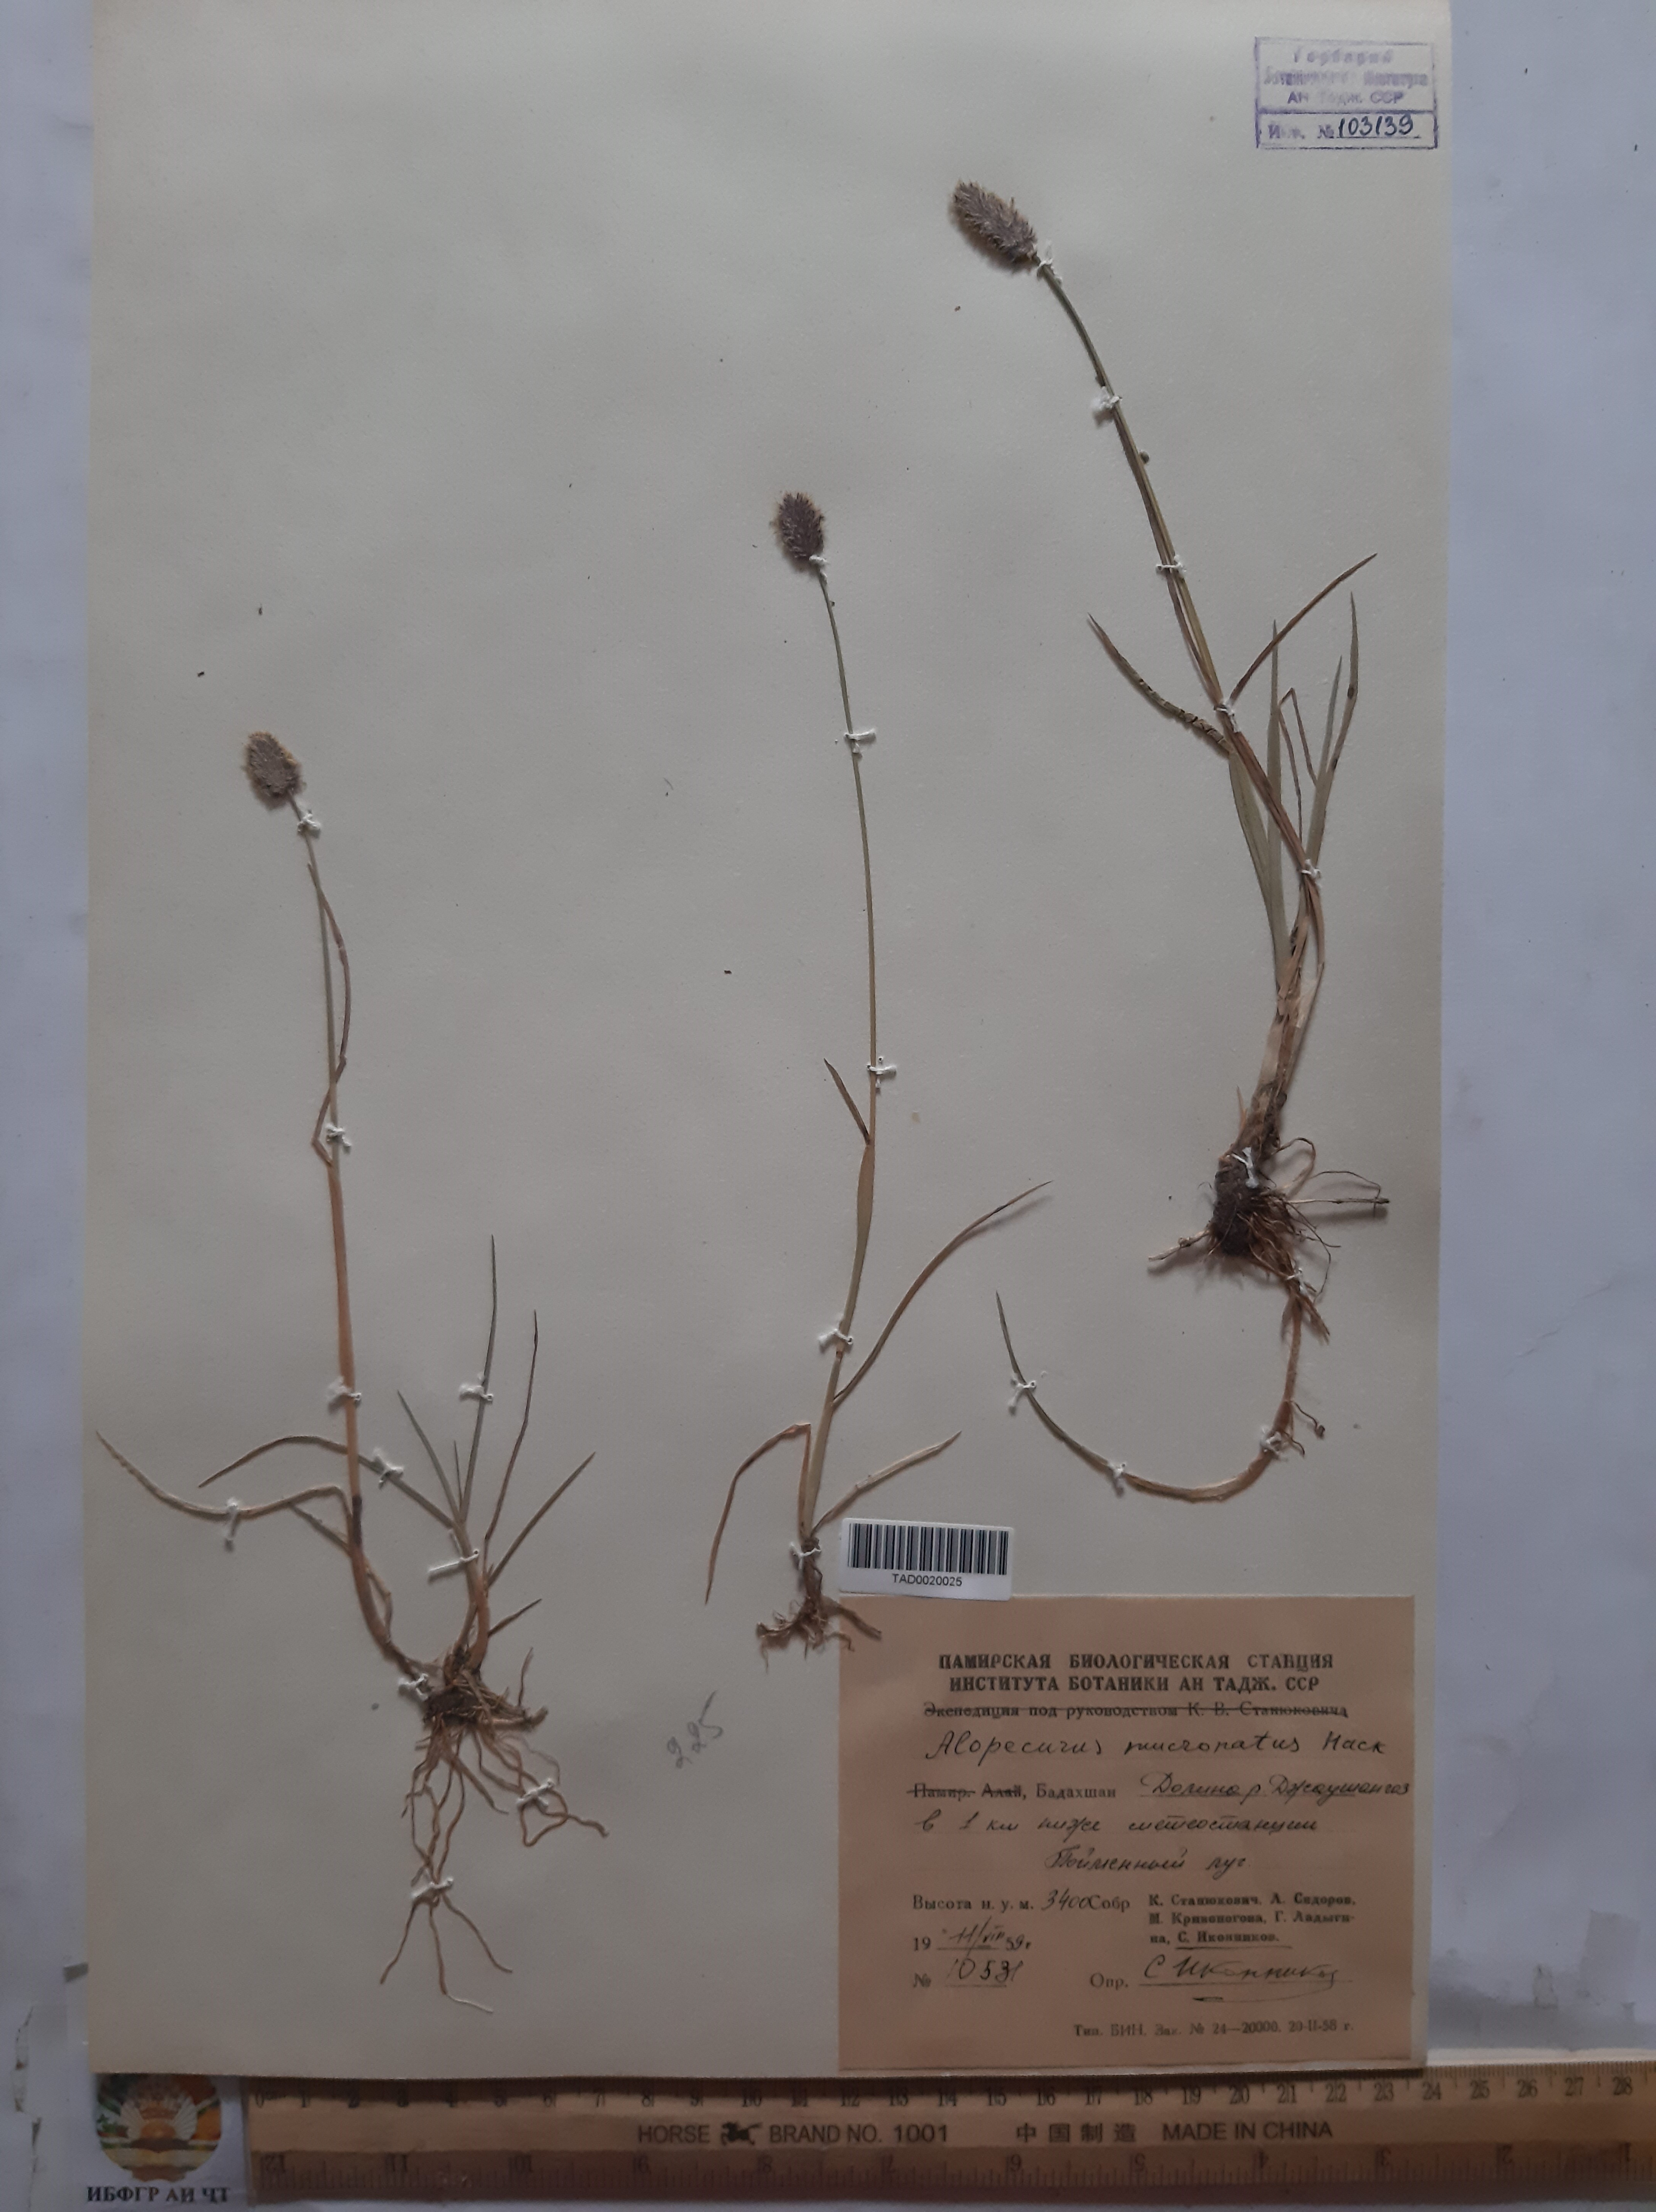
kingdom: Plantae
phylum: Tracheophyta
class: Liliopsida
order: Poales
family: Poaceae
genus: Alopecurus
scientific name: Alopecurus mucronatus
